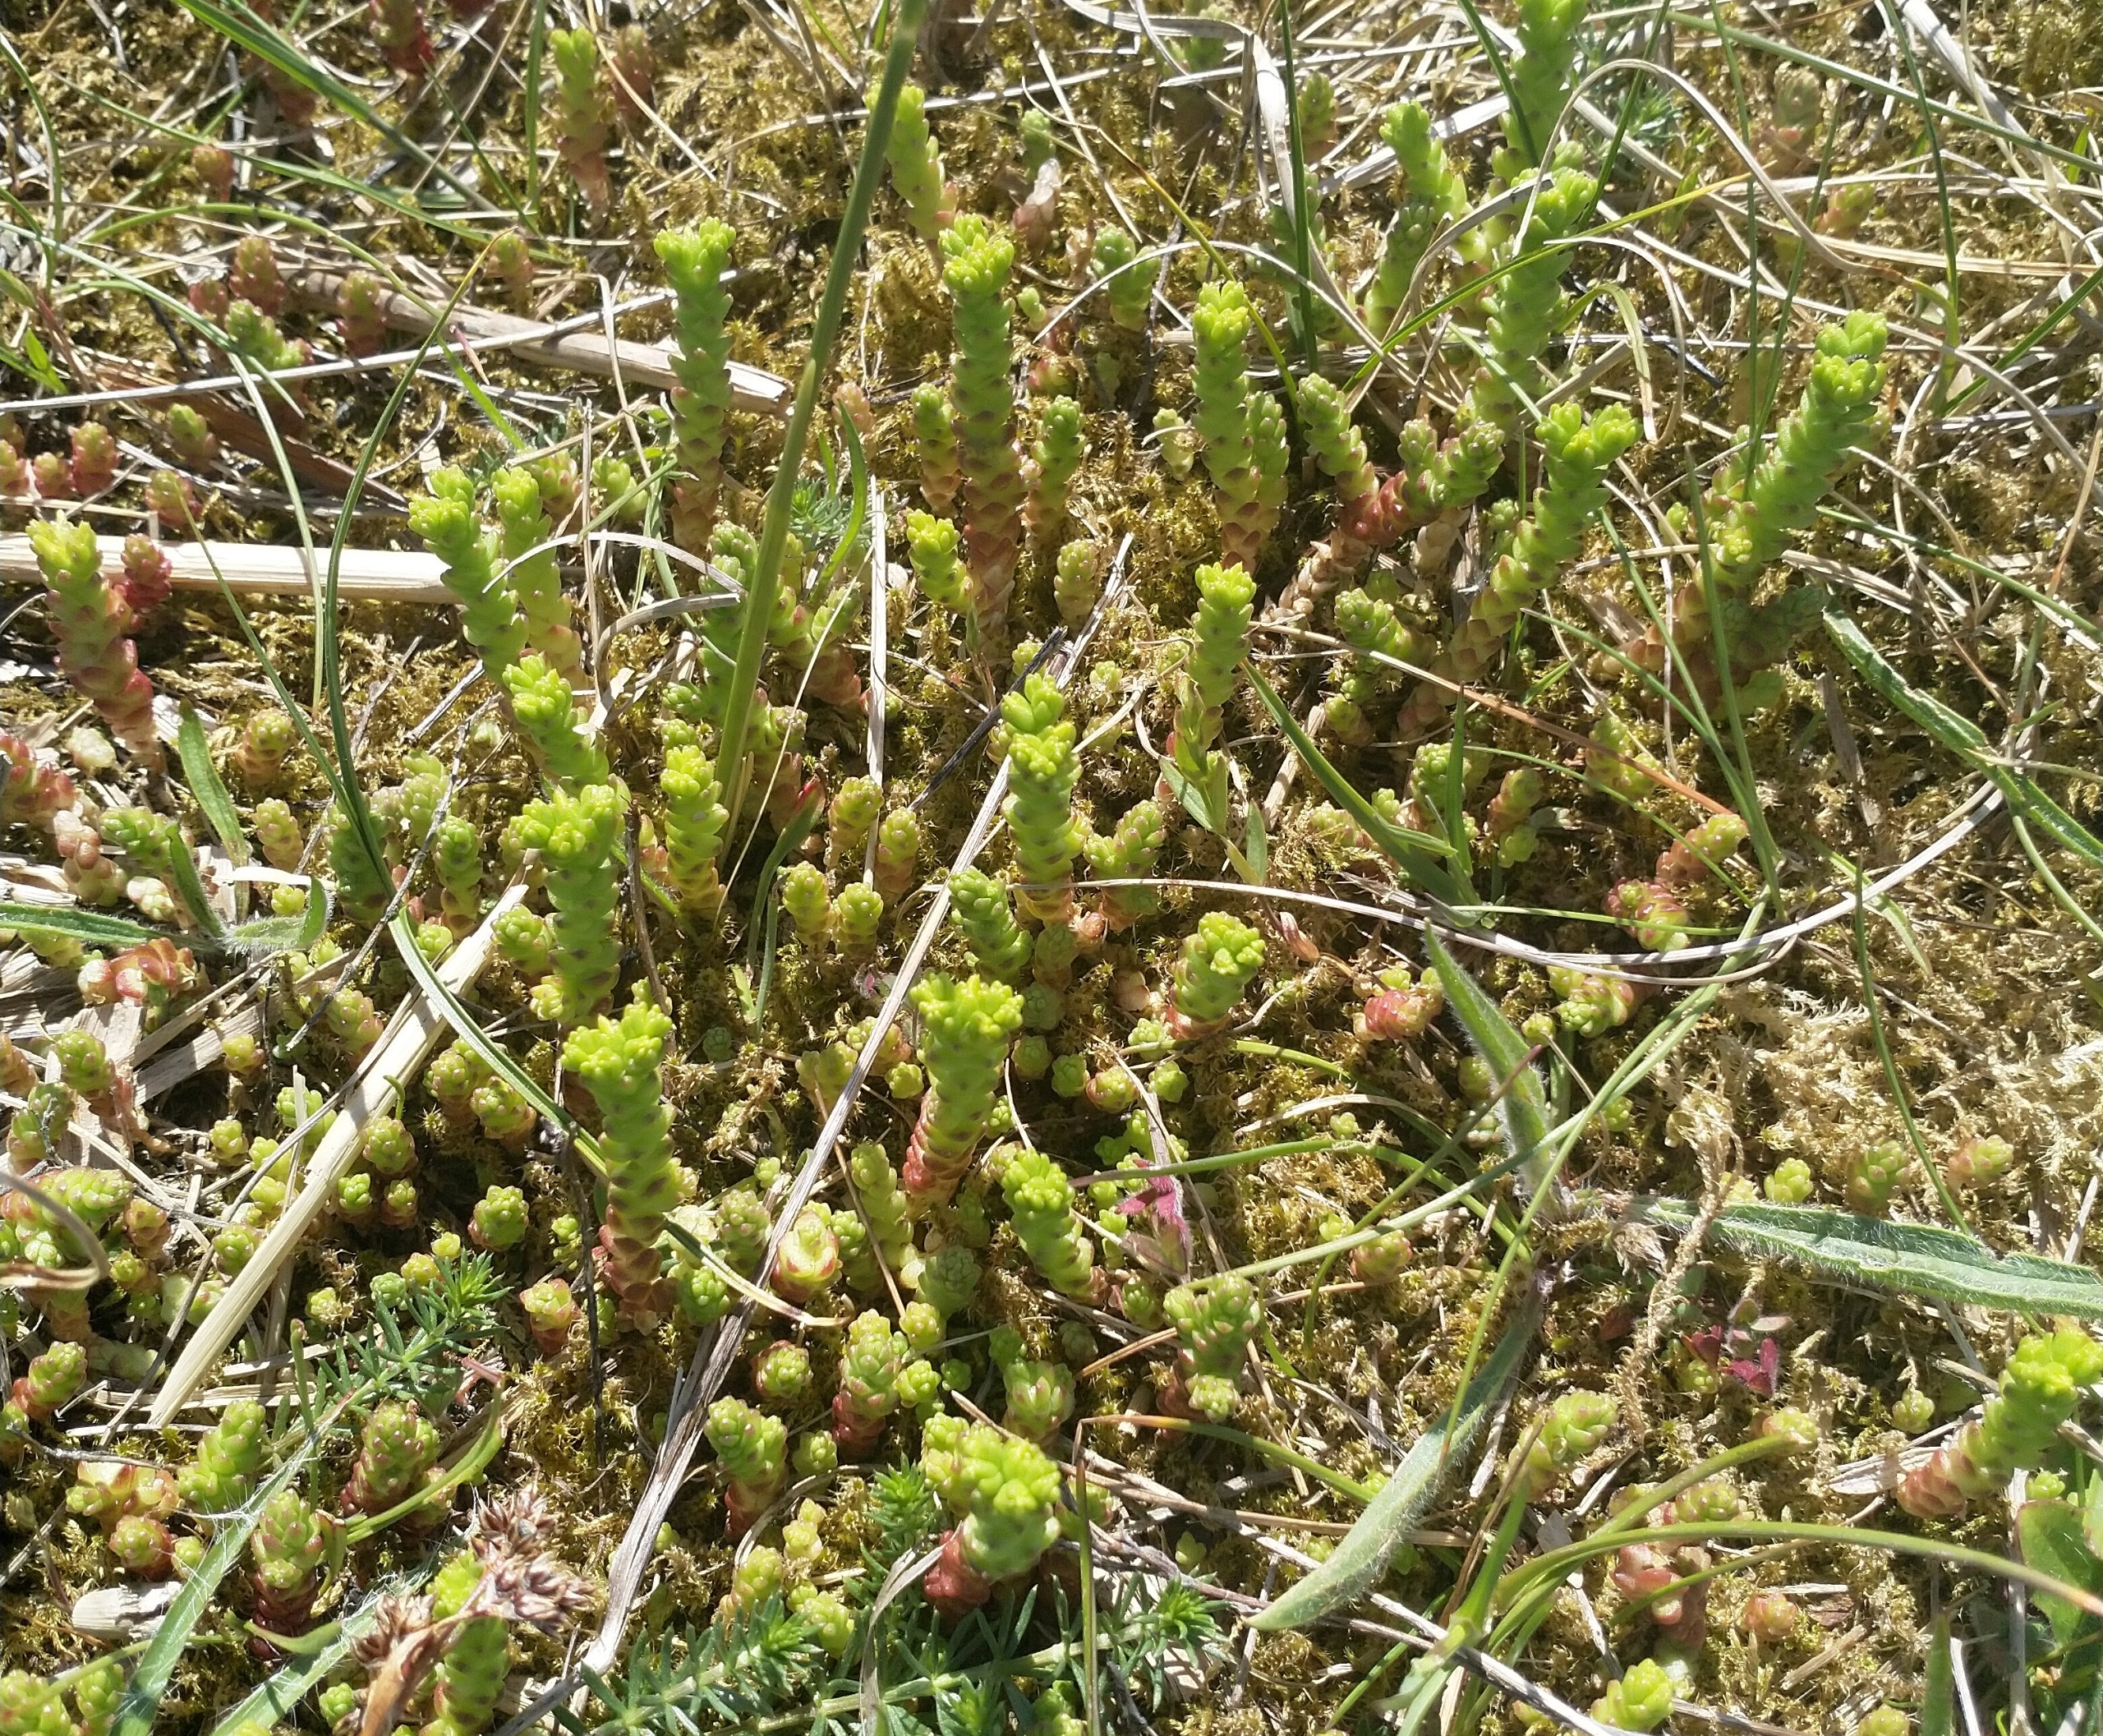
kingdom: Plantae
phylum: Tracheophyta
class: Magnoliopsida
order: Saxifragales
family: Crassulaceae
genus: Sedum
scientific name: Sedum acre
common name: Bidende stenurt
